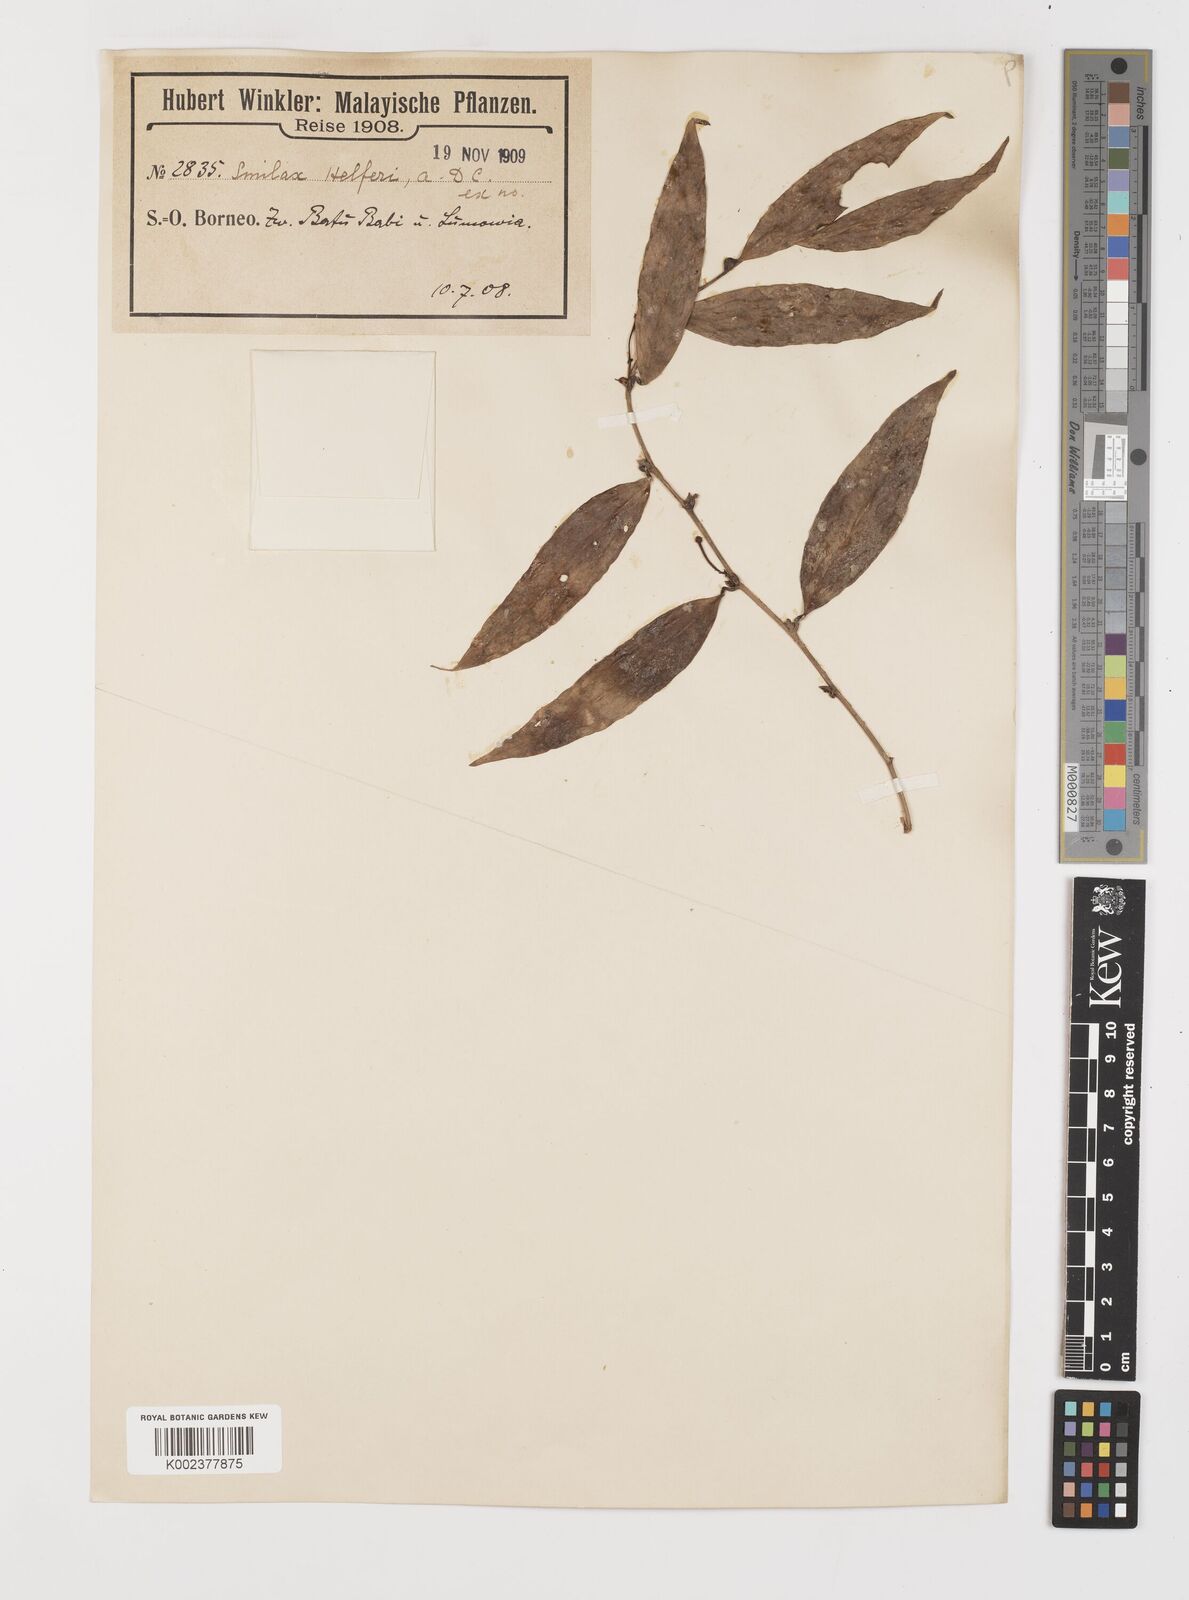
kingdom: Plantae
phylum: Tracheophyta
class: Liliopsida
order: Liliales
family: Smilacaceae
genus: Smilax
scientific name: Smilax luzonensis
